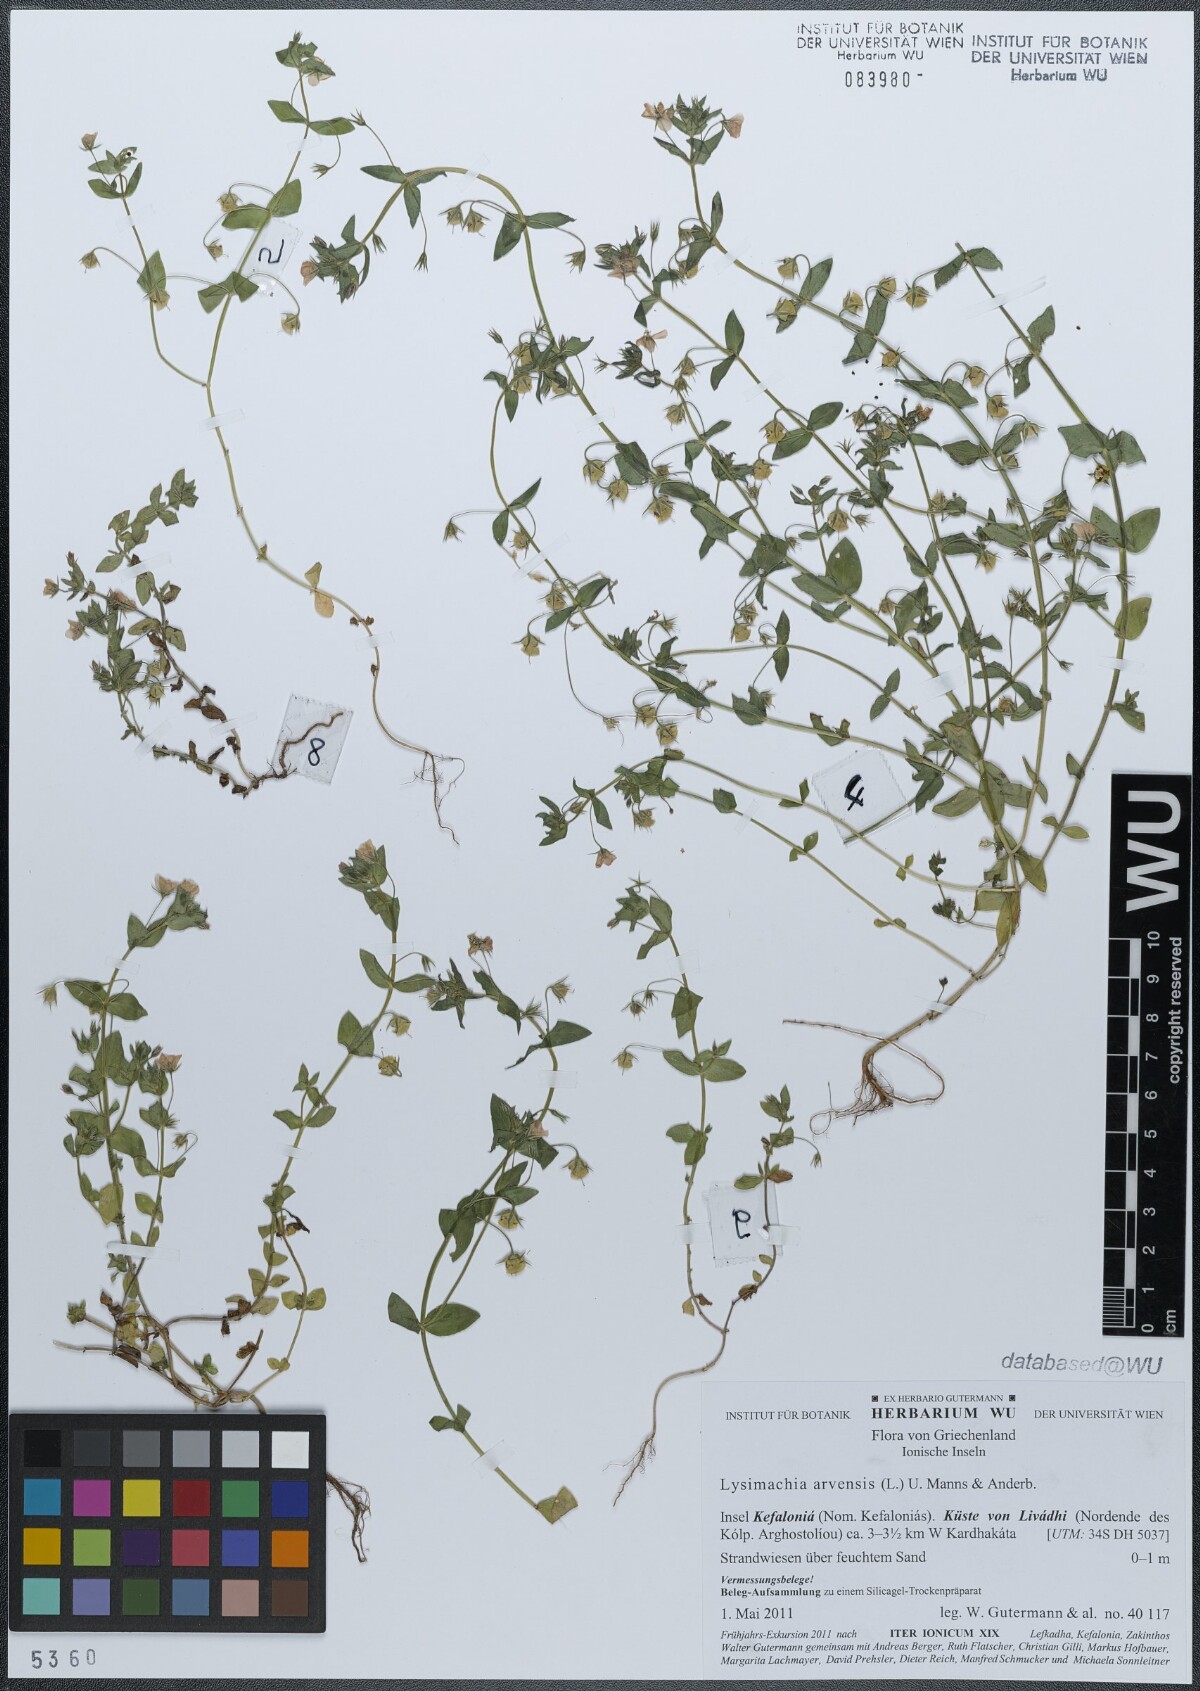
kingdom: Plantae
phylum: Tracheophyta
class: Magnoliopsida
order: Ericales
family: Primulaceae
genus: Lysimachia
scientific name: Lysimachia arvensis
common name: Scarlet pimpernel
